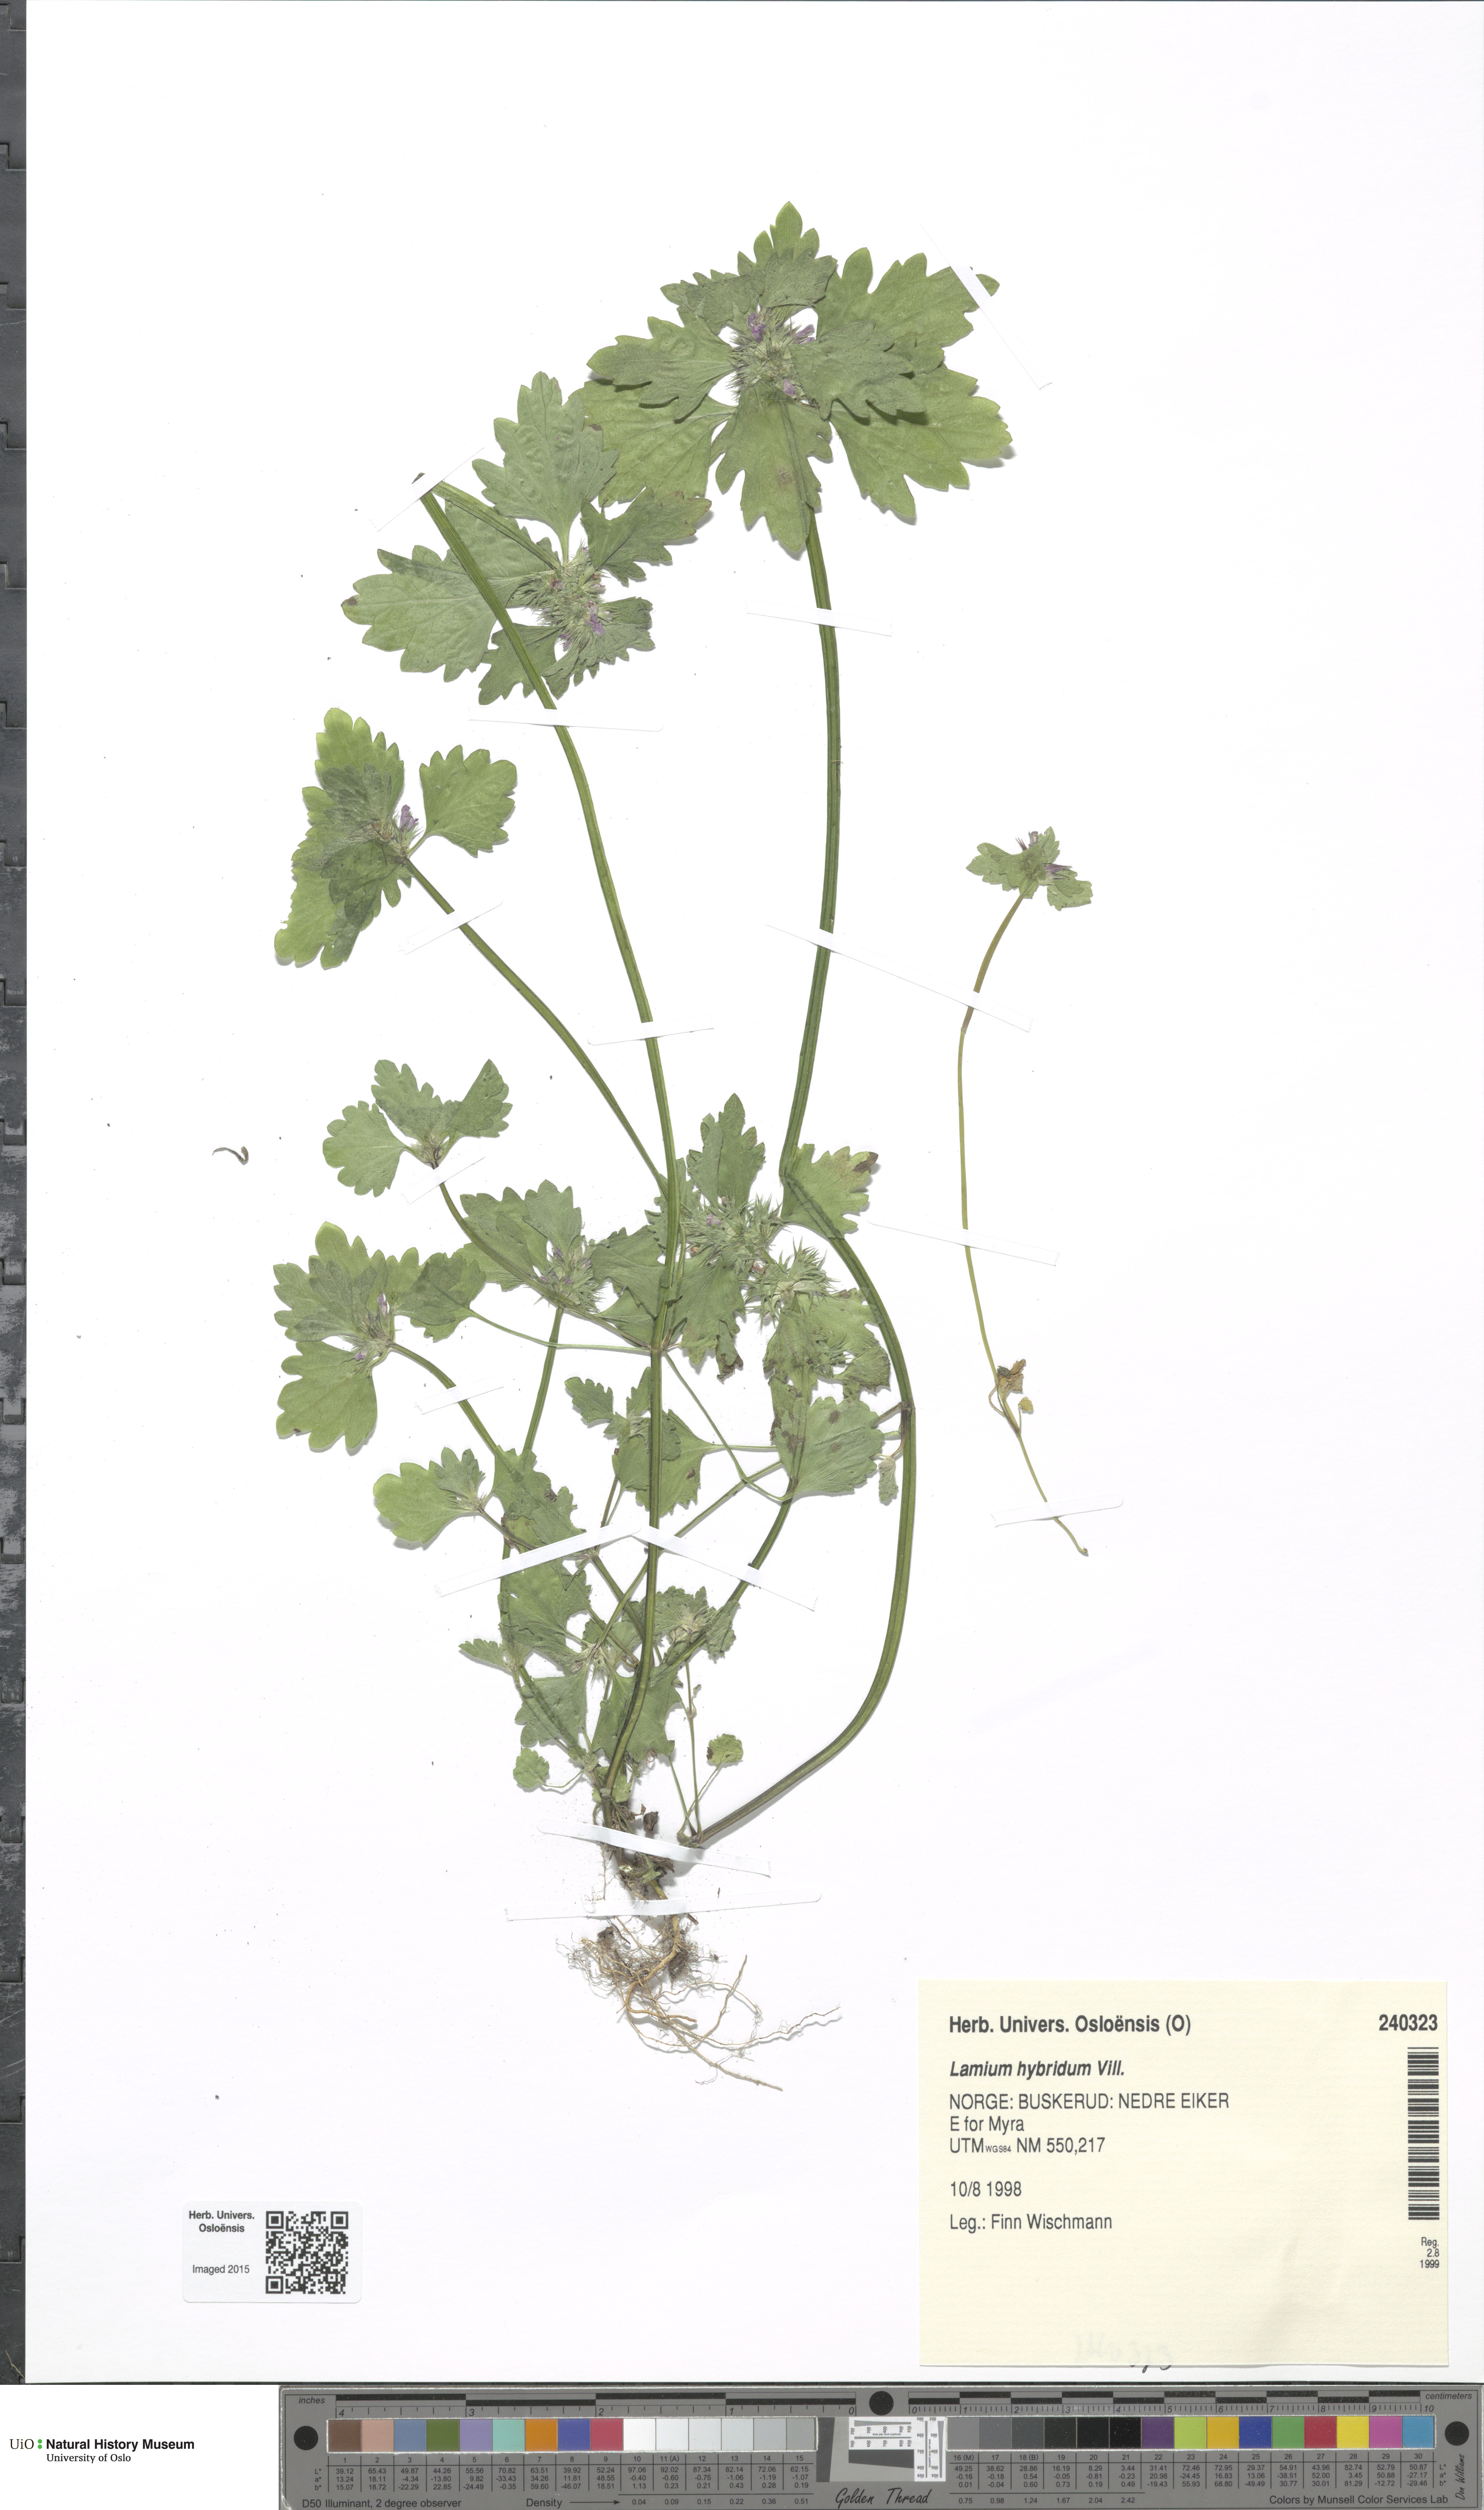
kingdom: Plantae
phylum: Tracheophyta
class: Magnoliopsida
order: Lamiales
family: Lamiaceae
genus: Lamium
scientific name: Lamium hybridum
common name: Cut-leaved dead-nettle
